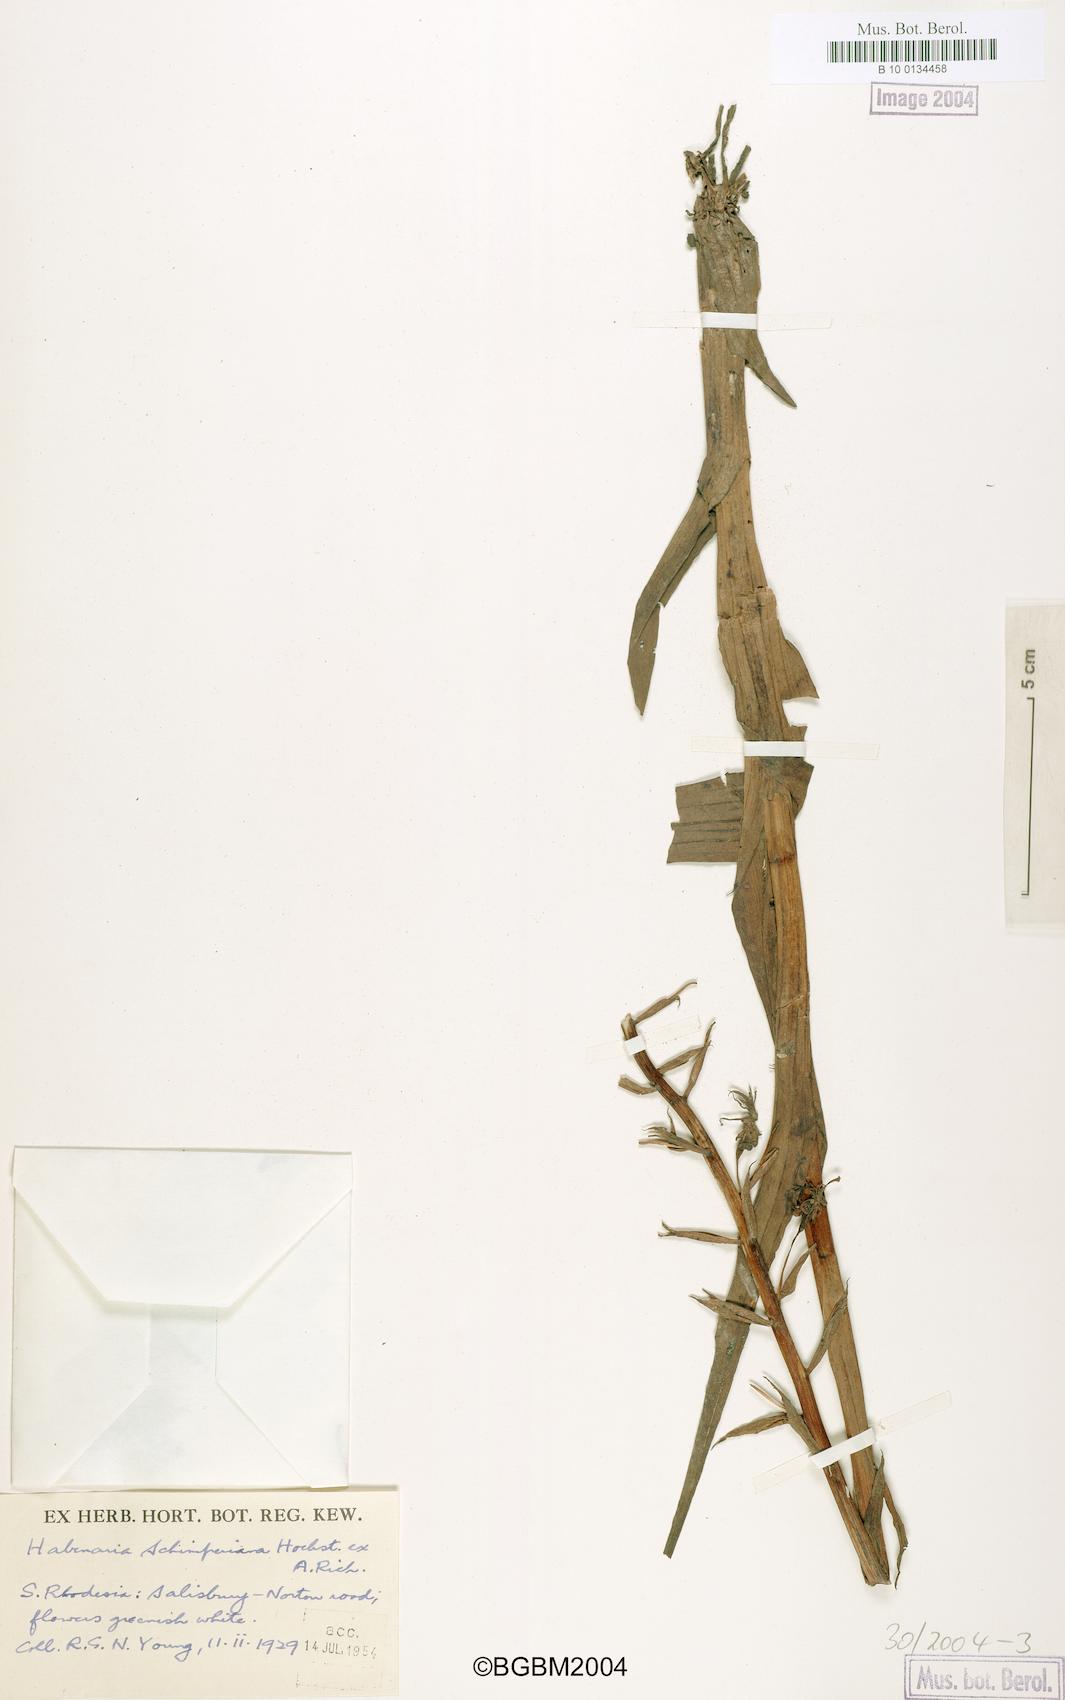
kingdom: Plantae
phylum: Tracheophyta
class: Liliopsida
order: Asparagales
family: Orchidaceae
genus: Habenaria
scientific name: Habenaria schimperiana
